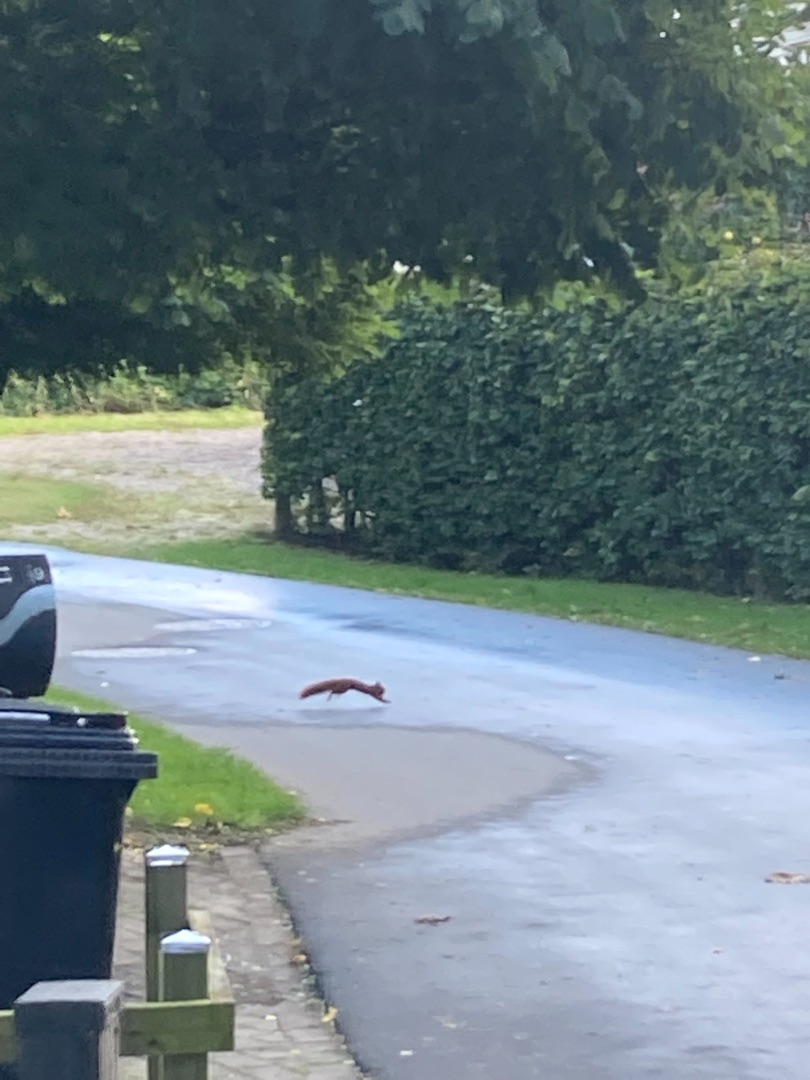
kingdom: Animalia
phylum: Chordata
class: Mammalia
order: Rodentia
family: Sciuridae
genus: Sciurus
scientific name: Sciurus vulgaris
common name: Egern
